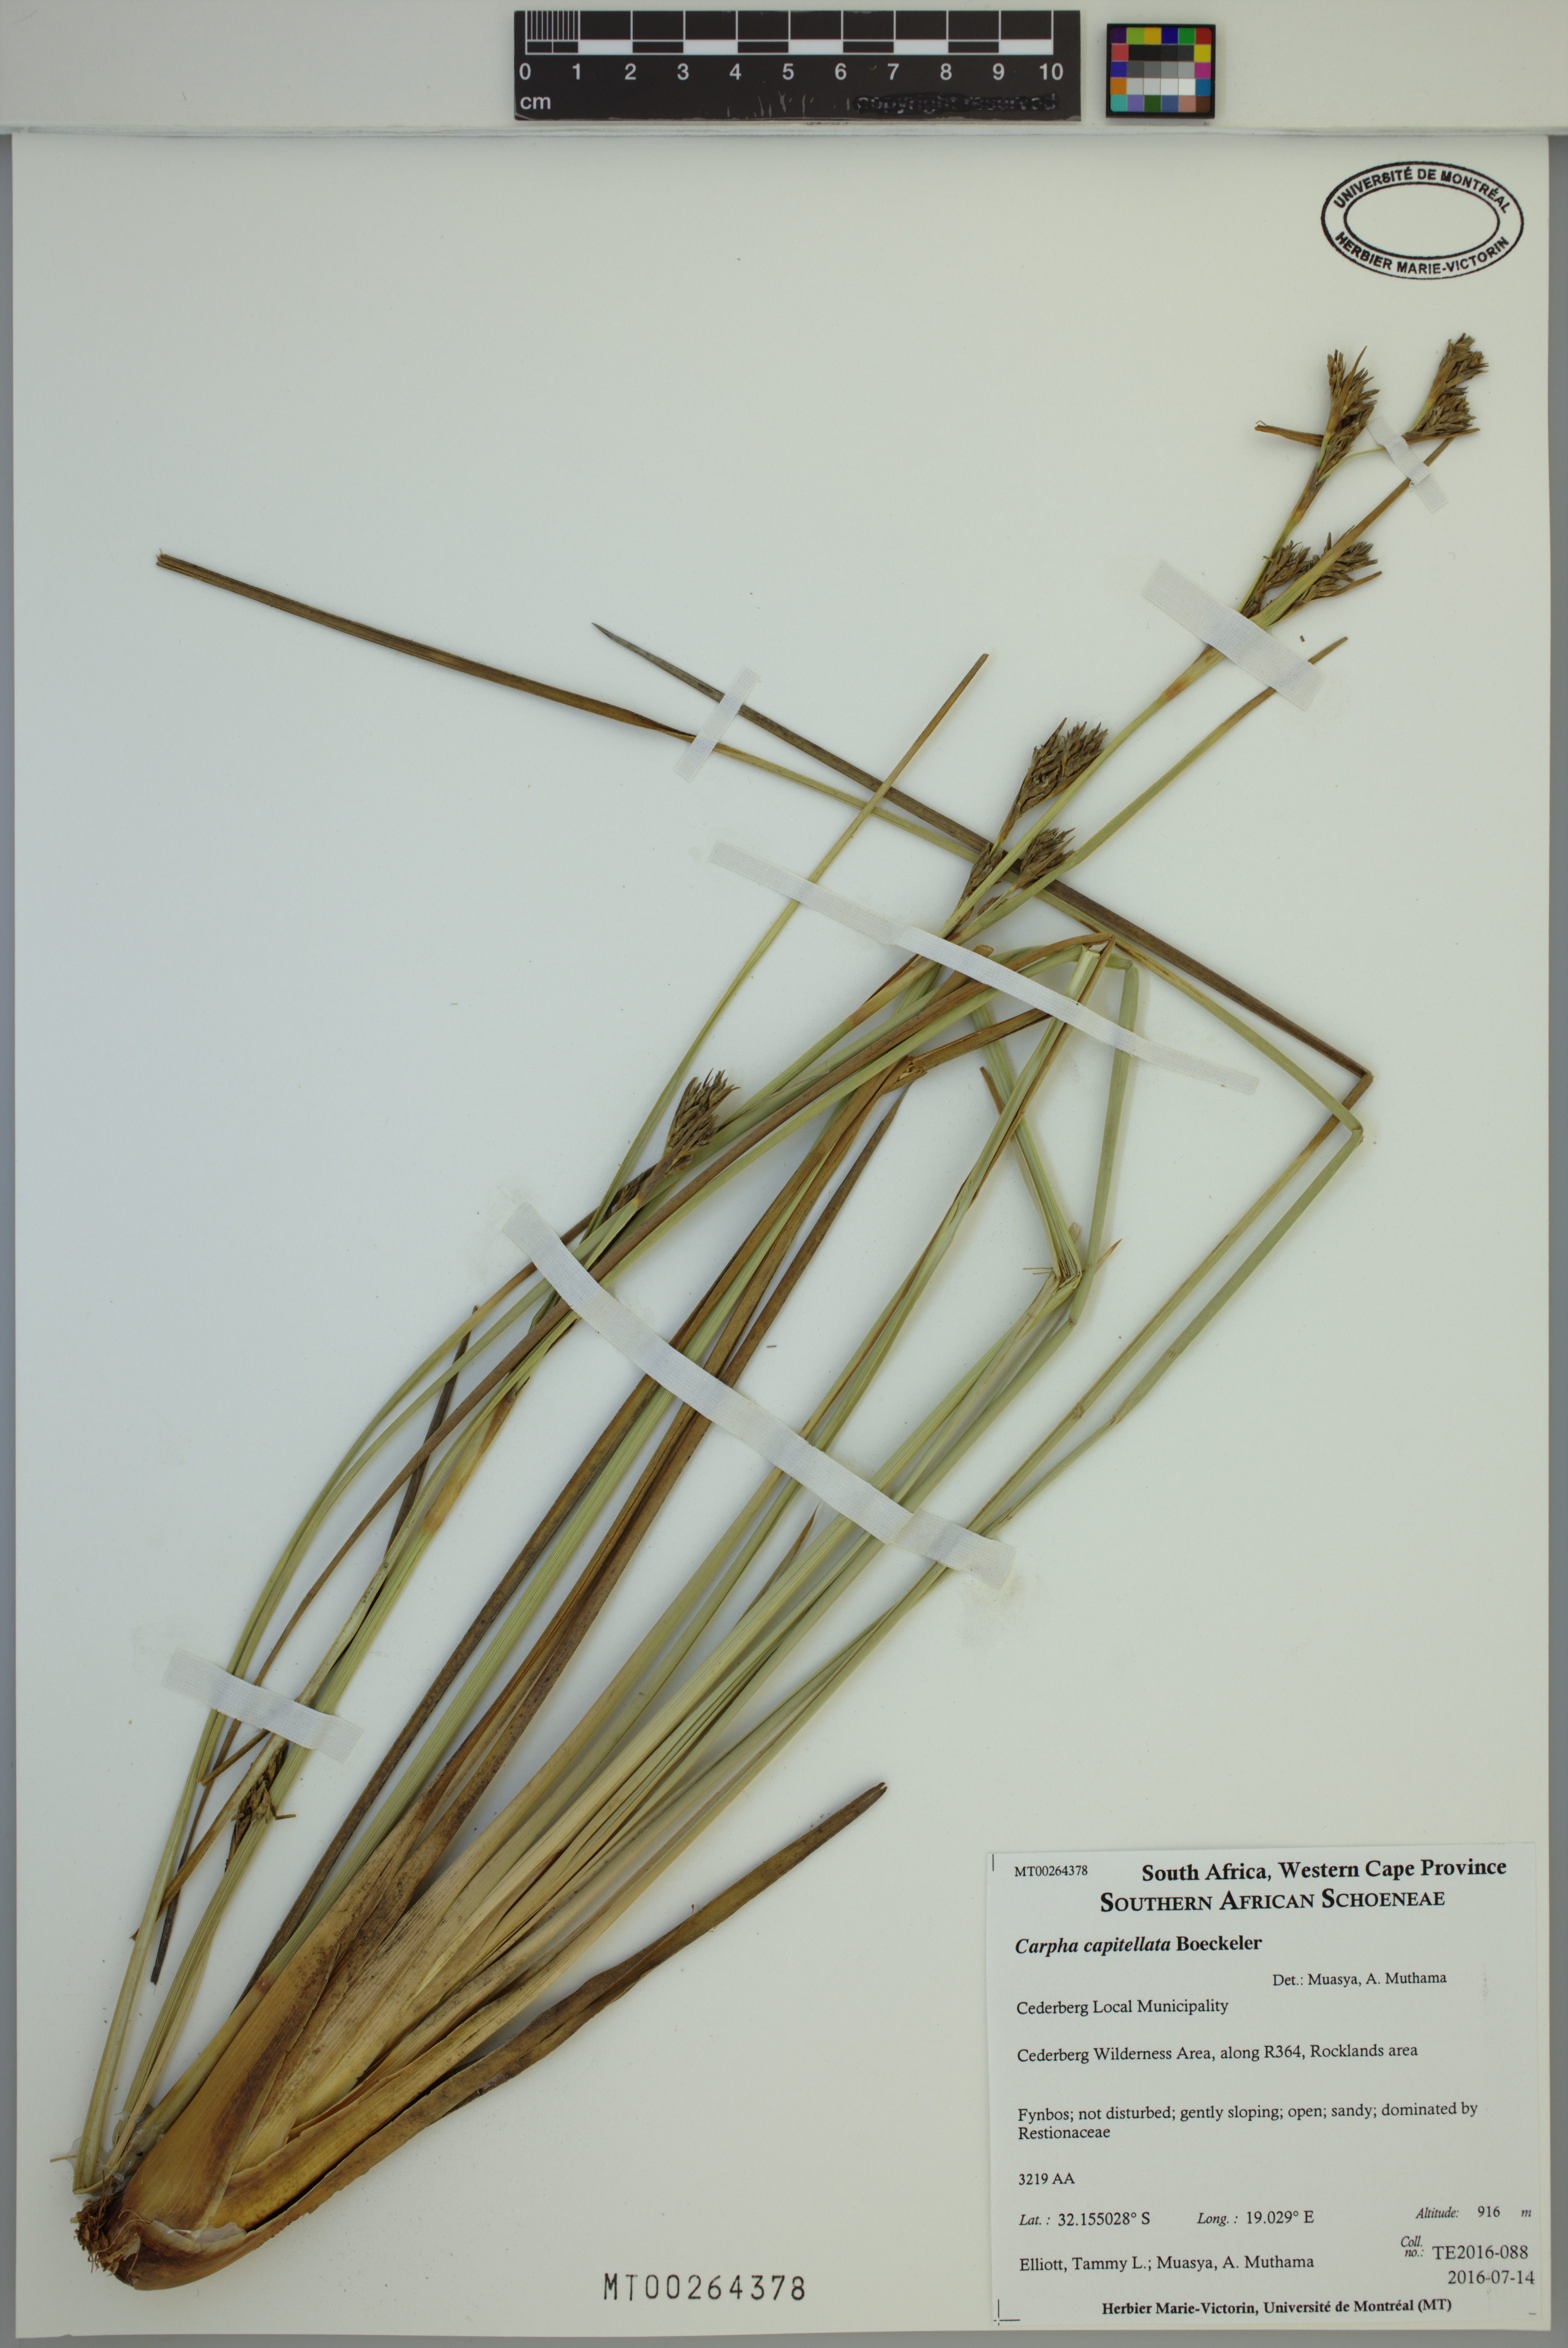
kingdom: Plantae
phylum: Tracheophyta
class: Liliopsida
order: Poales
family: Cyperaceae
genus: Carpha
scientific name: Carpha capitellata
